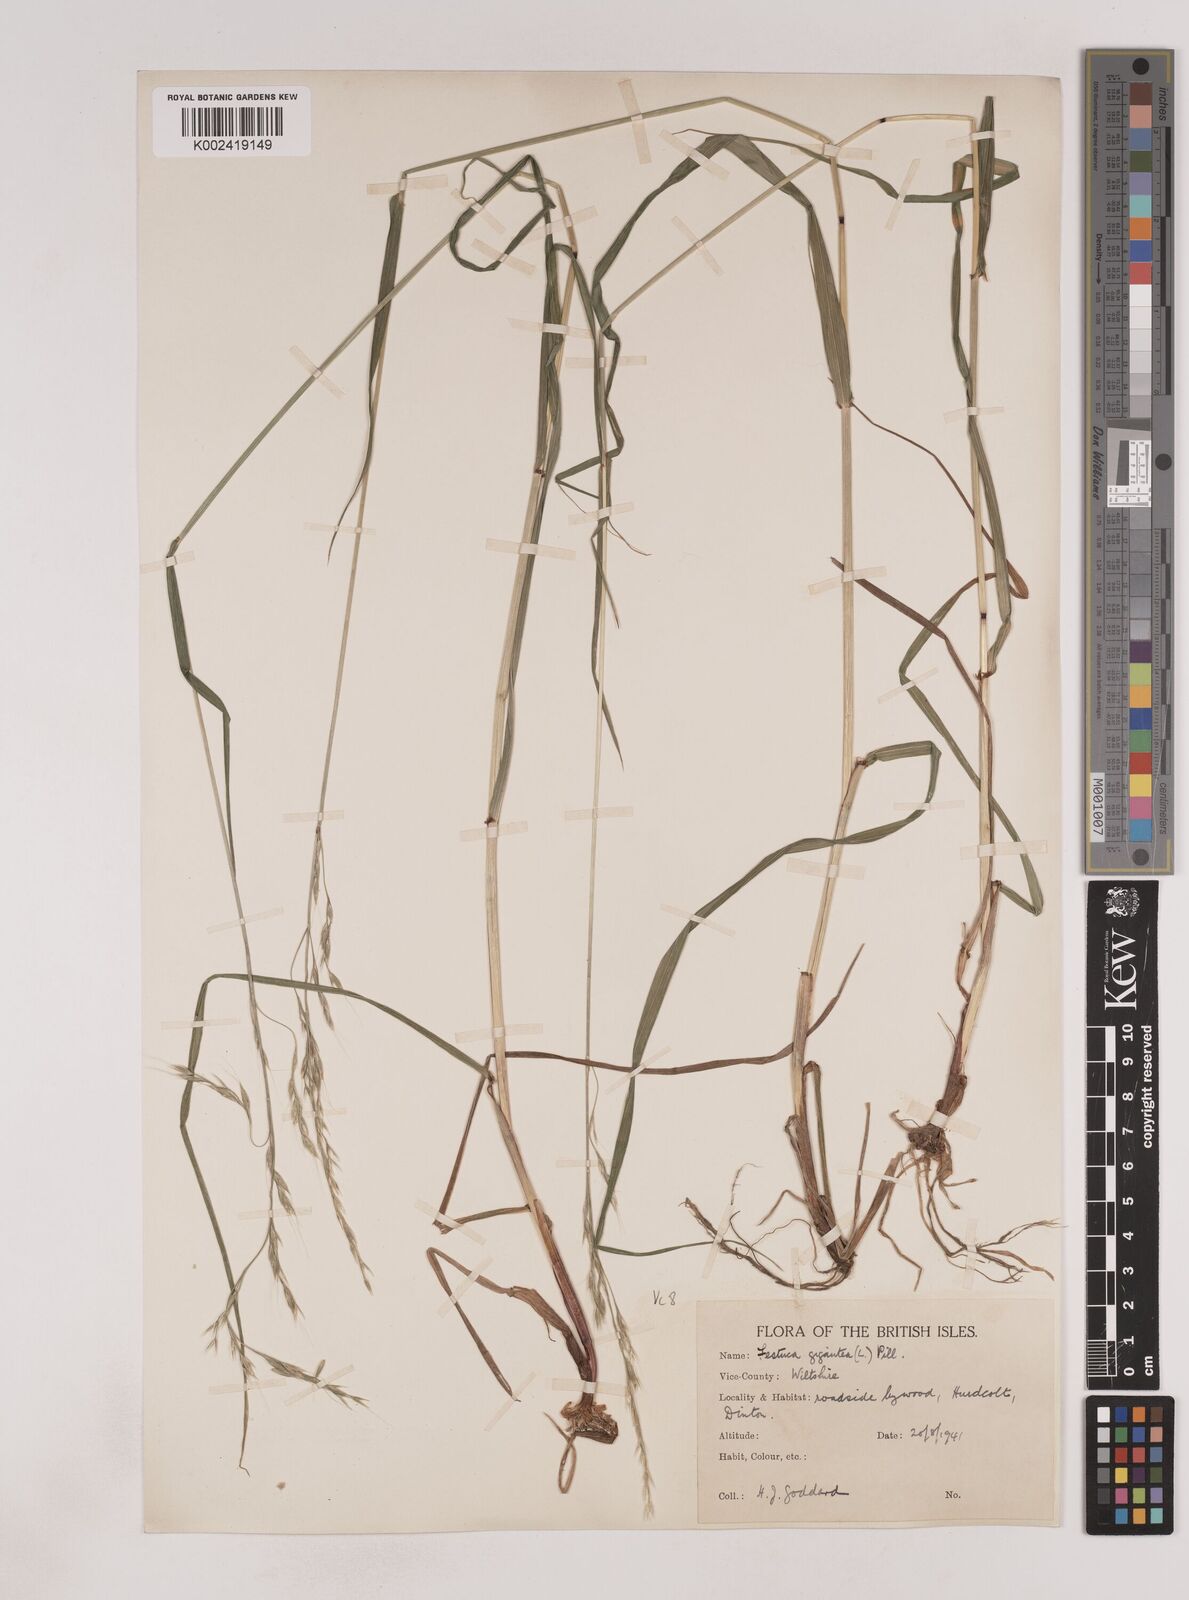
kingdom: Plantae
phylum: Tracheophyta
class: Liliopsida
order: Poales
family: Poaceae
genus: Lolium
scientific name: Lolium giganteum
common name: Giant fescue
